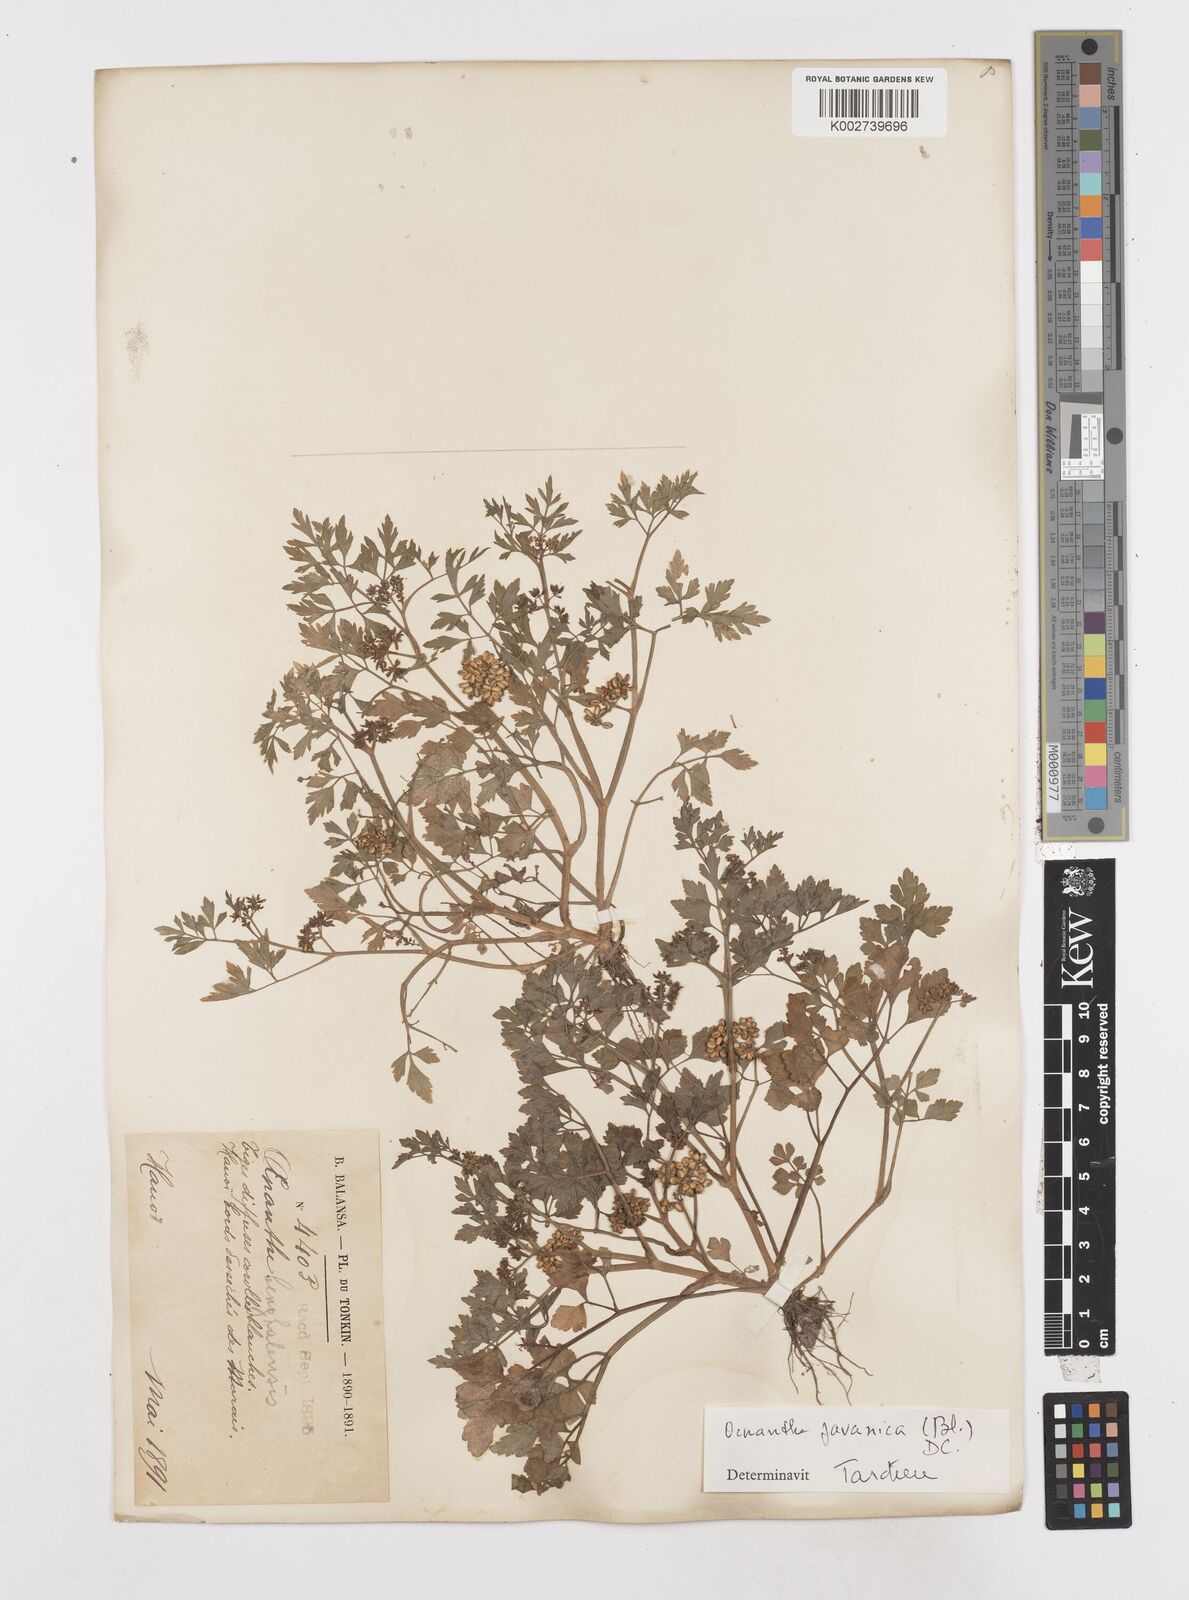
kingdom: Plantae
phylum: Tracheophyta
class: Magnoliopsida
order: Apiales
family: Apiaceae
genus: Oenanthe
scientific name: Oenanthe javanica
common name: Java water-dropwort
